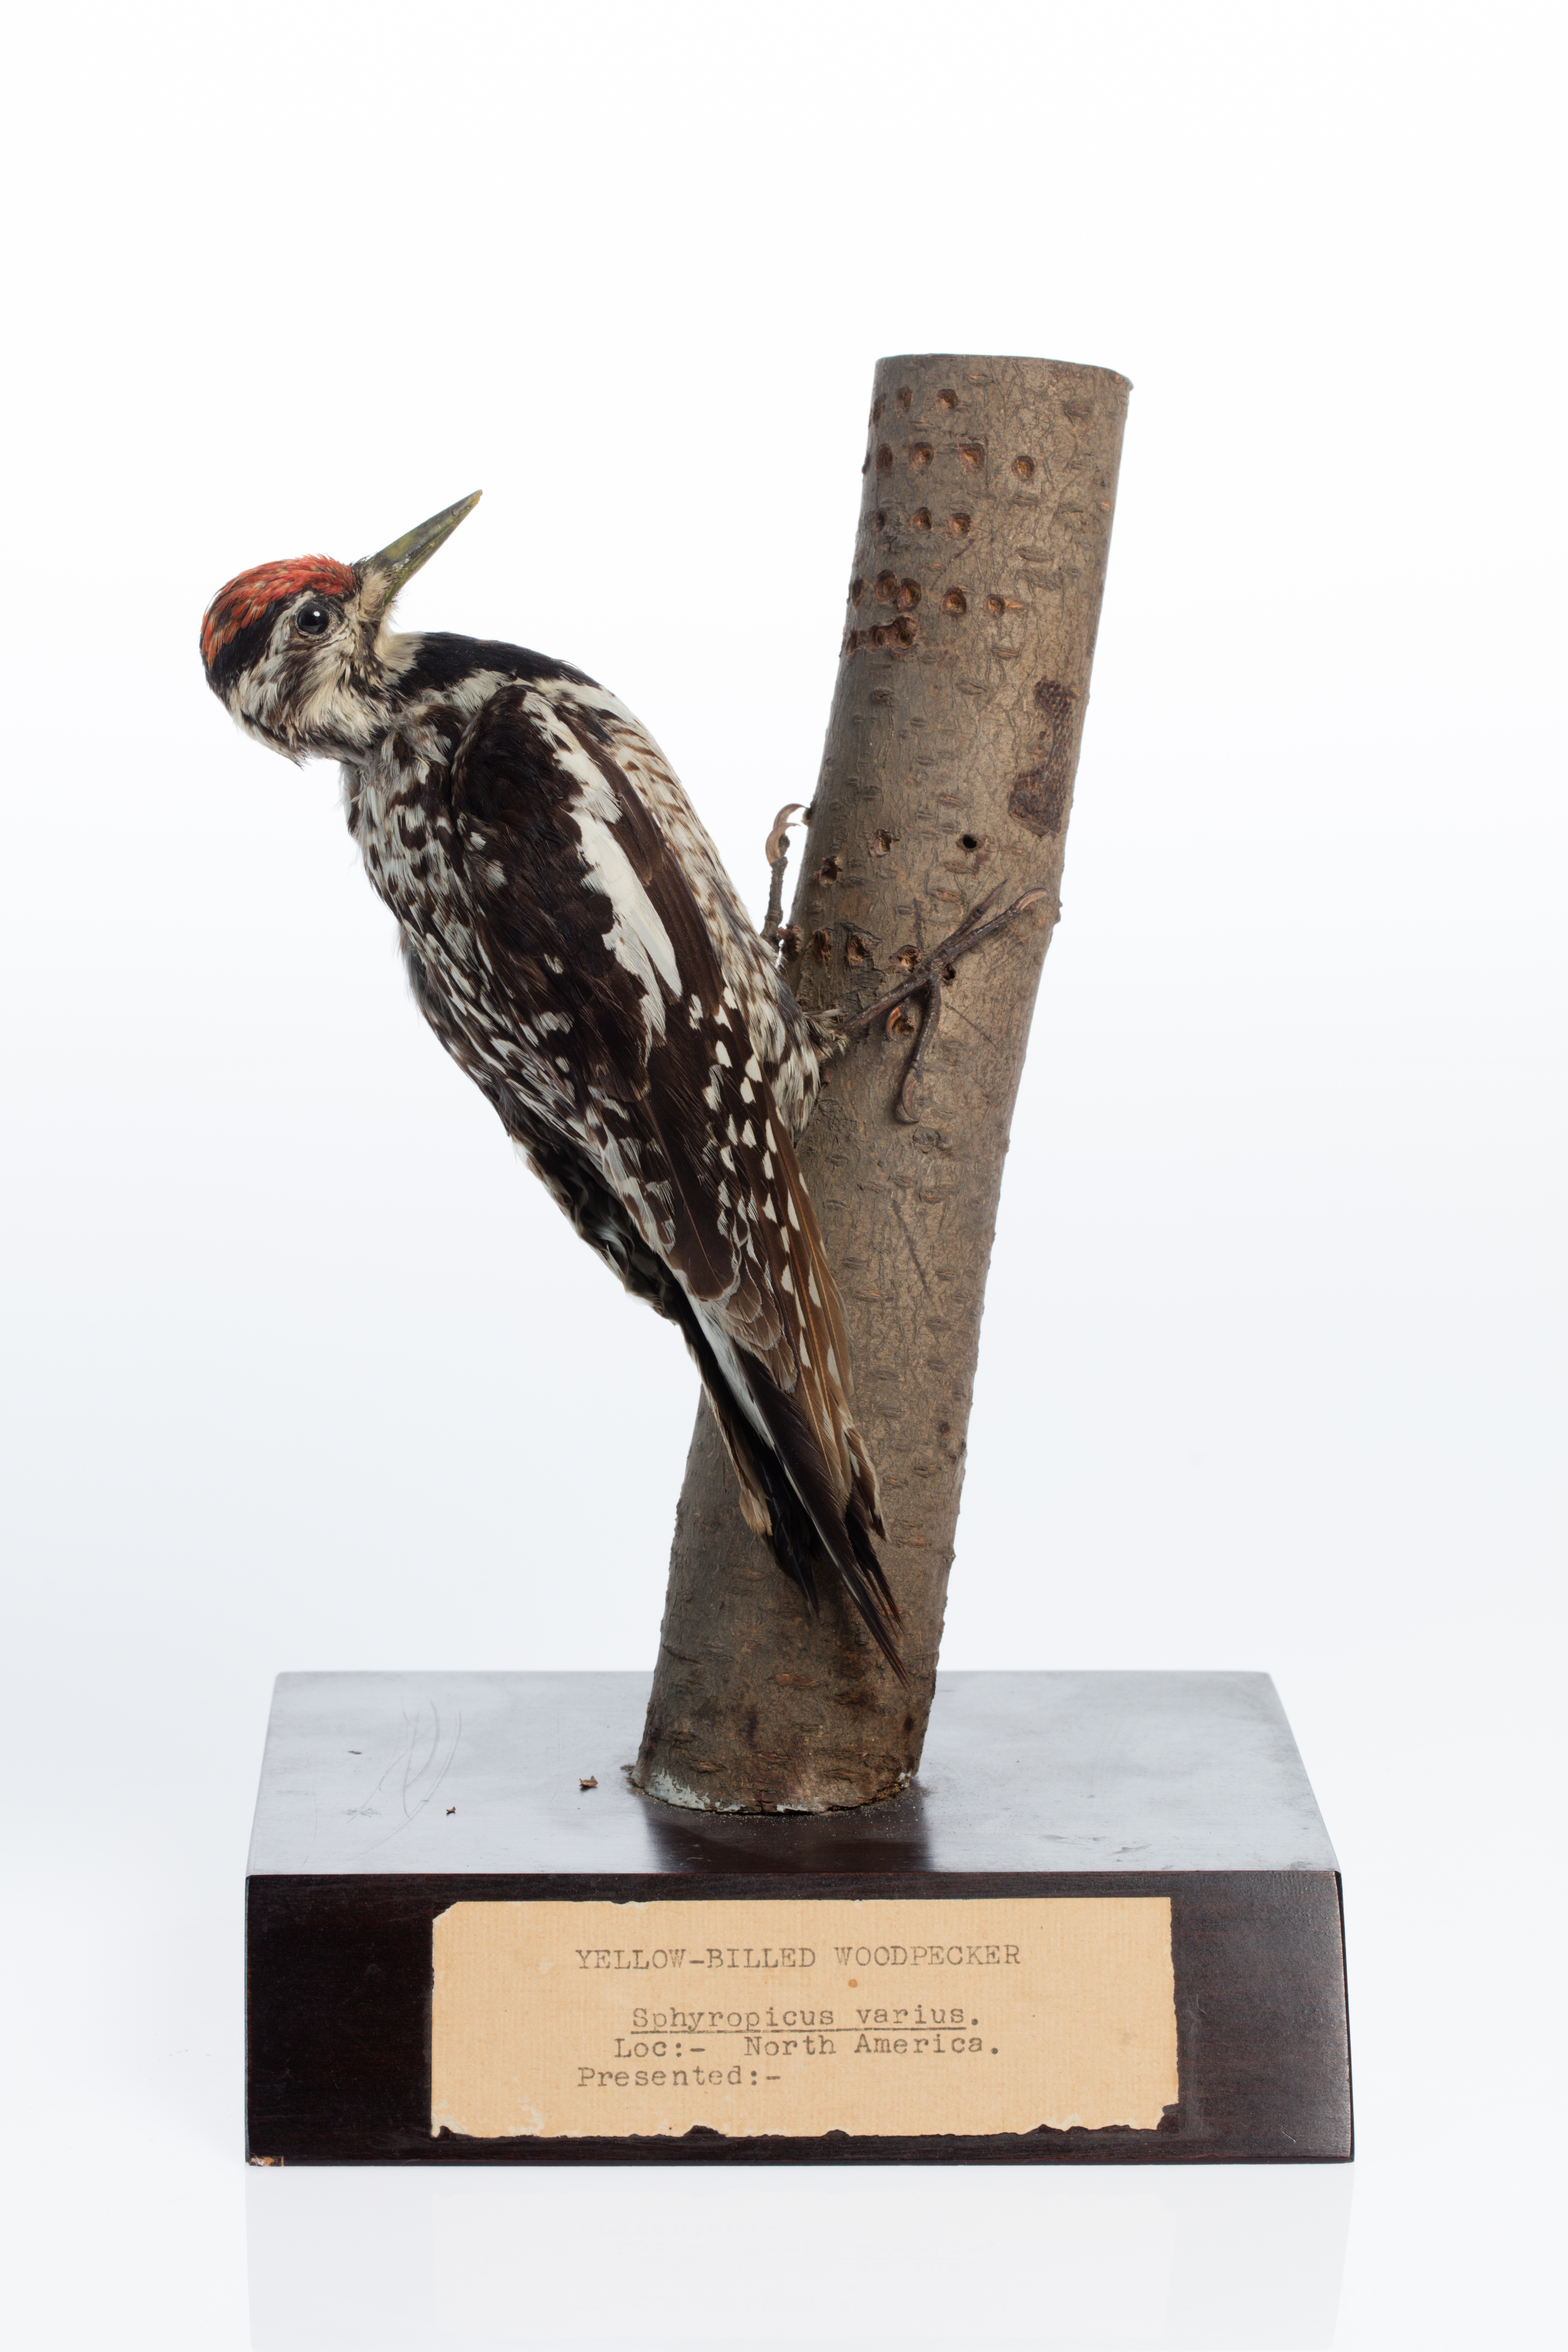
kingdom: Animalia
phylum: Chordata
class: Aves
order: Piciformes
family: Picidae
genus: Sphyrapicus
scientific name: Sphyrapicus varius
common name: Yellow-bellied sapsucker
